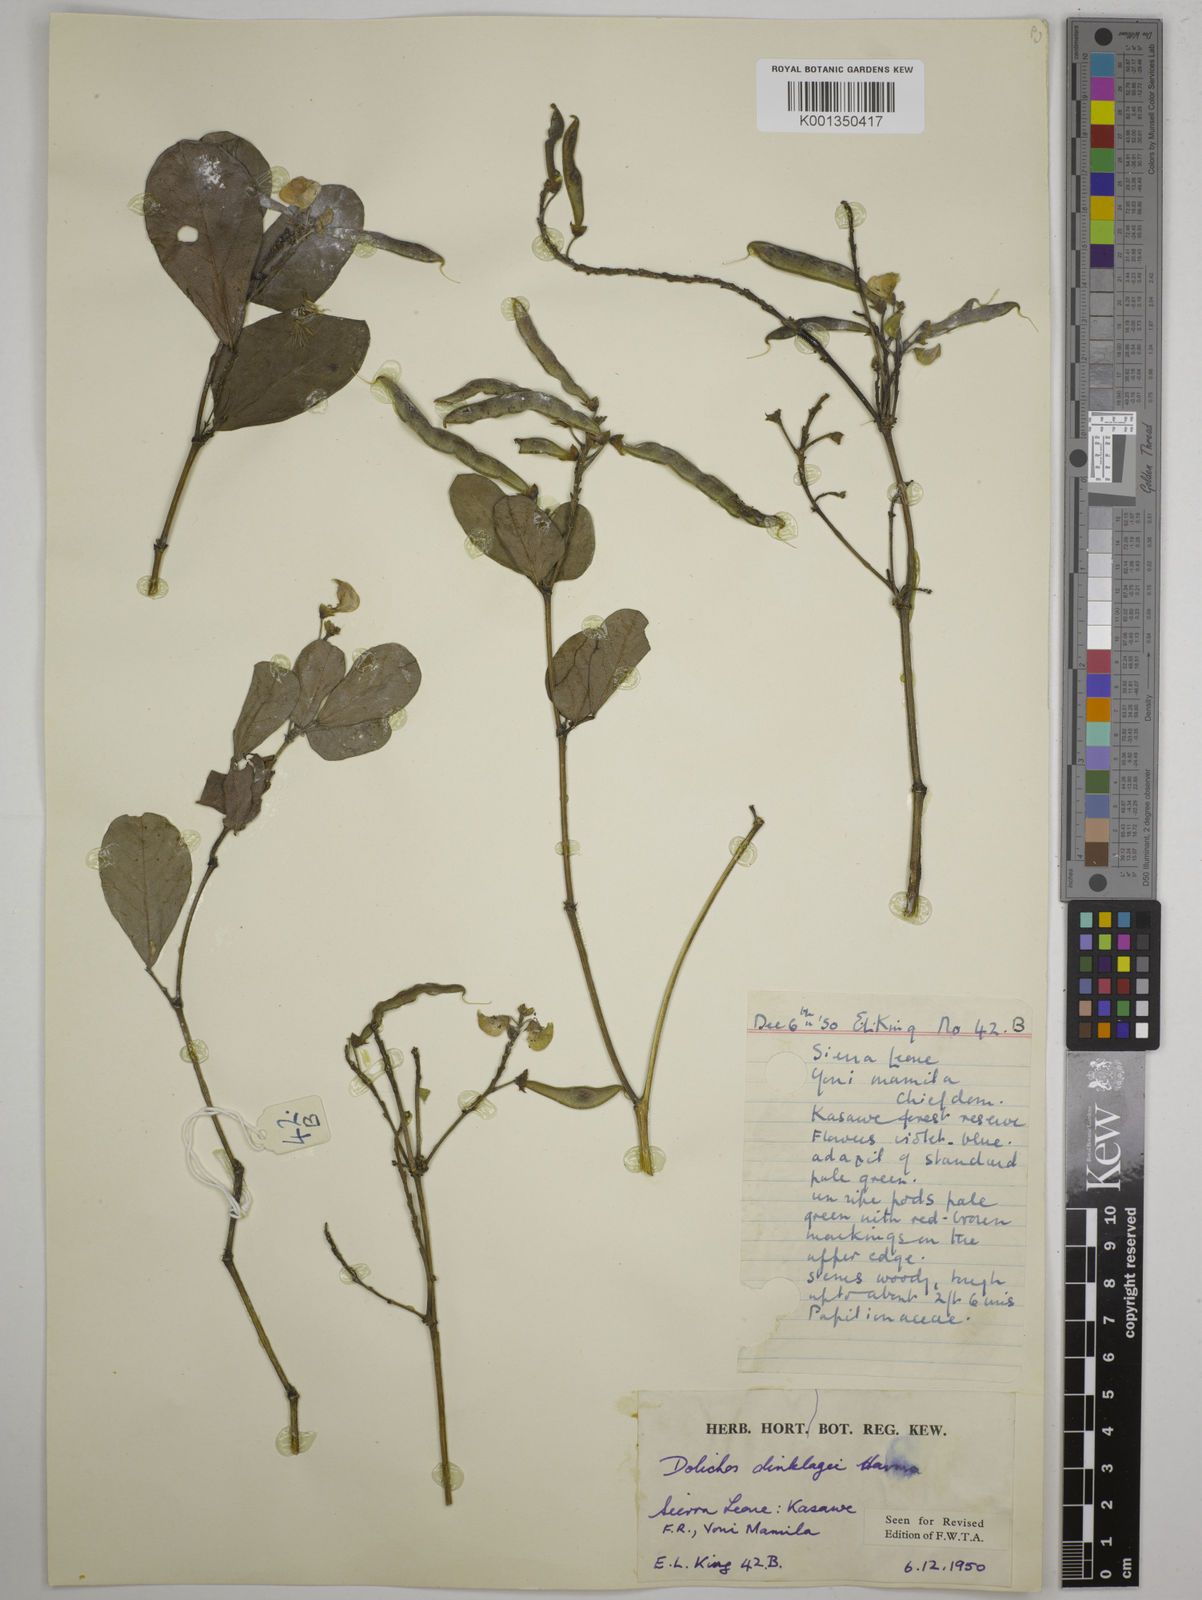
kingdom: Plantae
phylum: Tracheophyta
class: Magnoliopsida
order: Fabales
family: Fabaceae
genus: Dolichos
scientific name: Dolichos dinklagei
